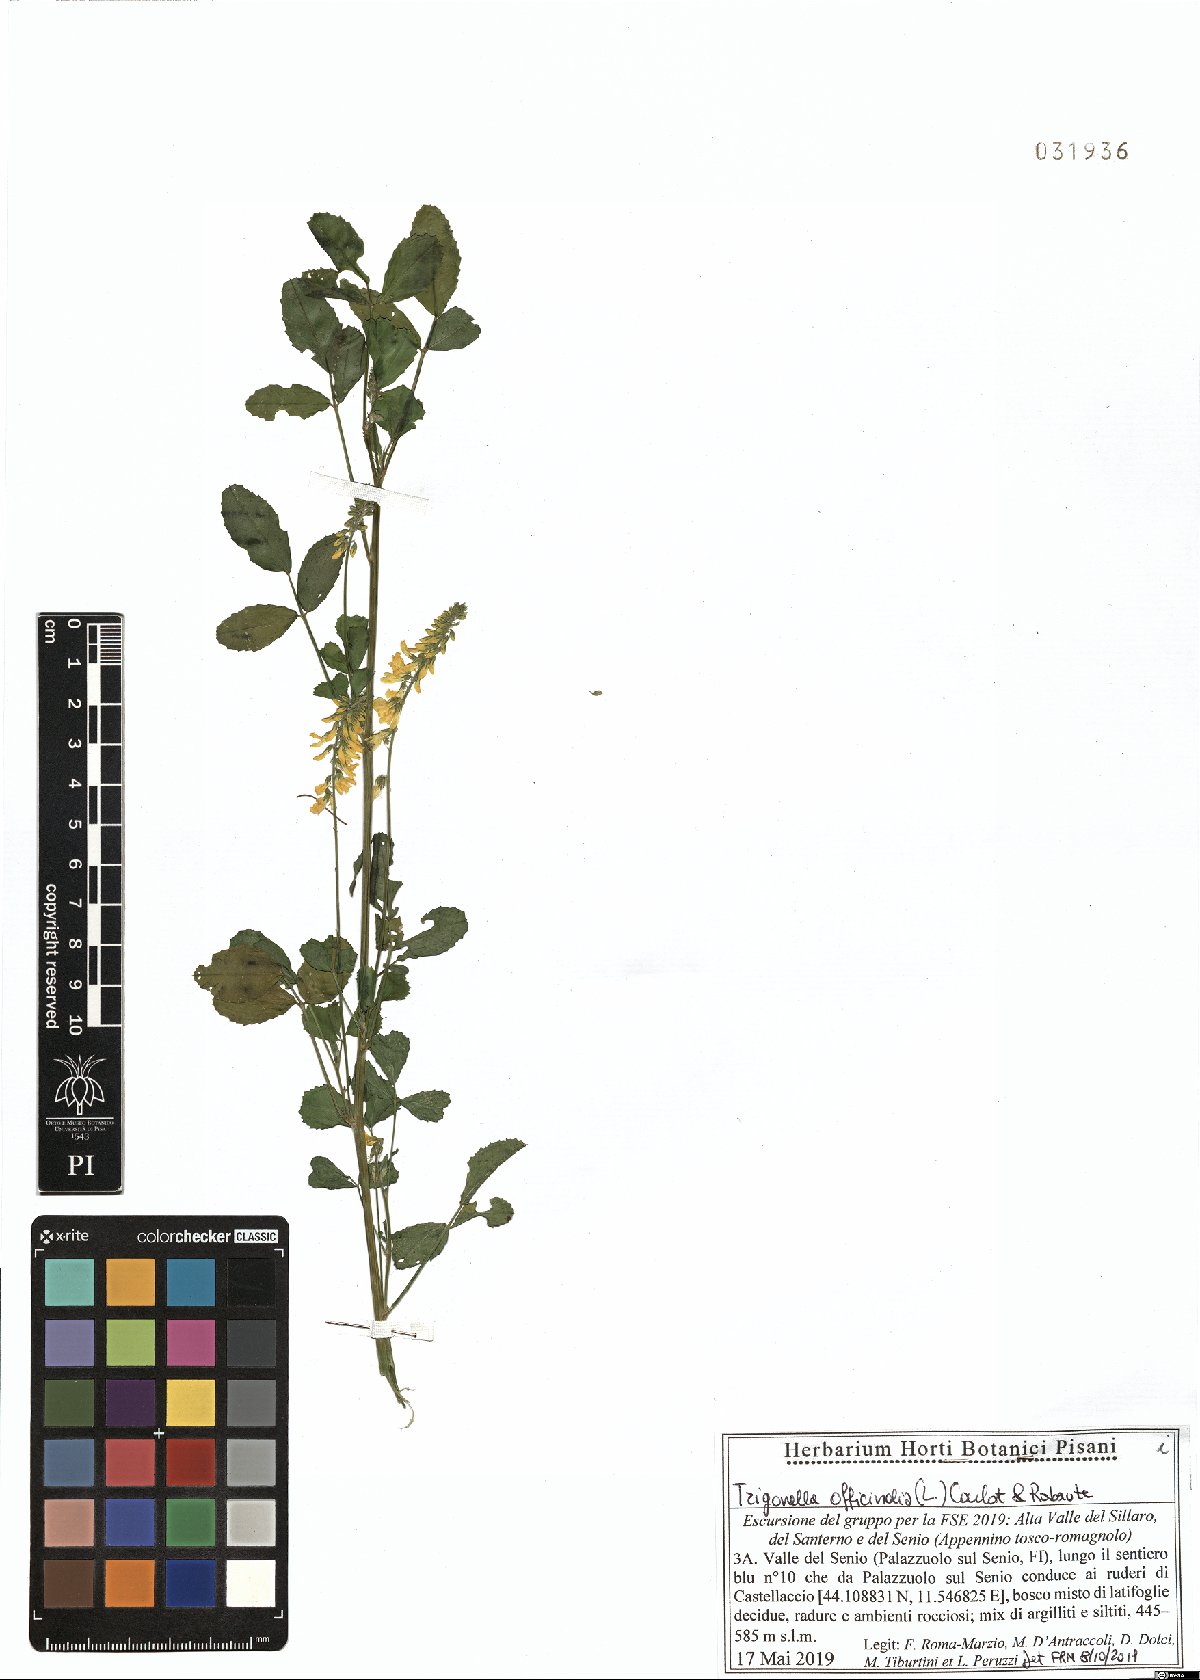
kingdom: Plantae
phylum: Tracheophyta
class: Magnoliopsida
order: Fabales
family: Fabaceae
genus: Melilotus
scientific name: Melilotus officinalis
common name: Sweetclover
